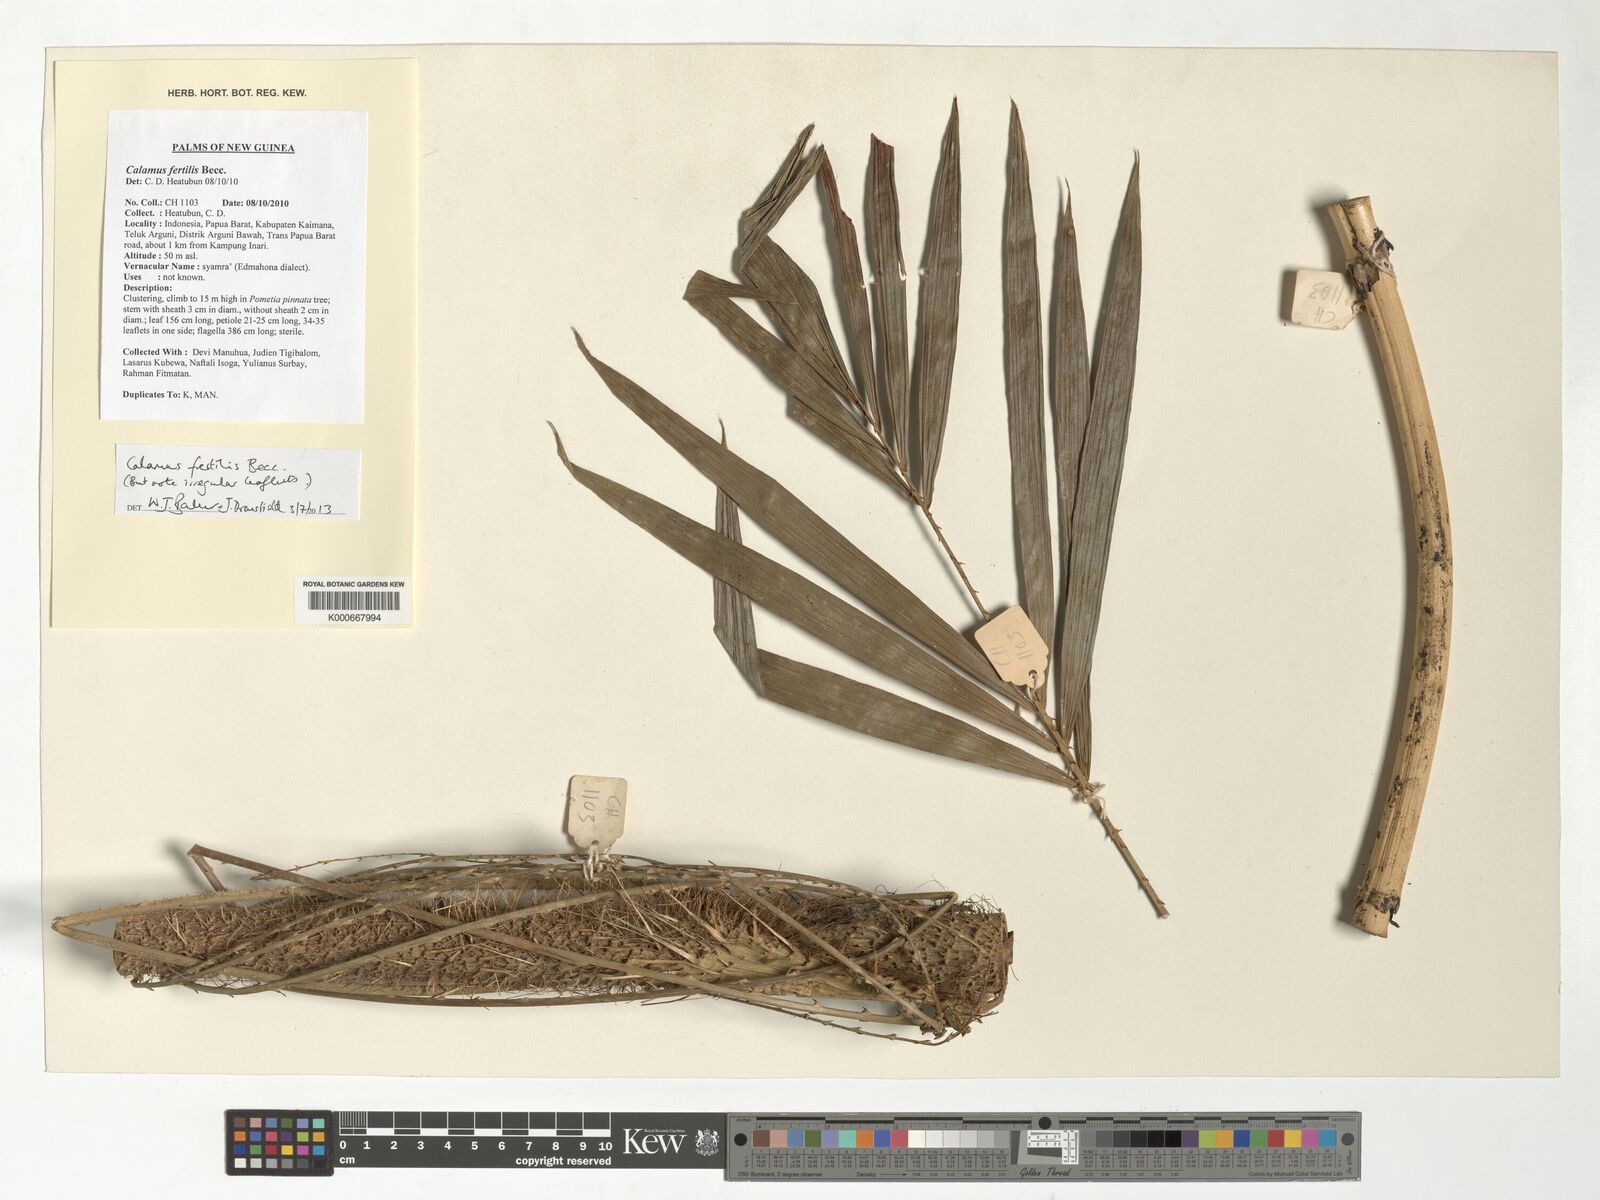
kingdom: Plantae
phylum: Tracheophyta
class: Liliopsida
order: Arecales
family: Arecaceae
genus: Calamus
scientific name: Calamus fertilis
